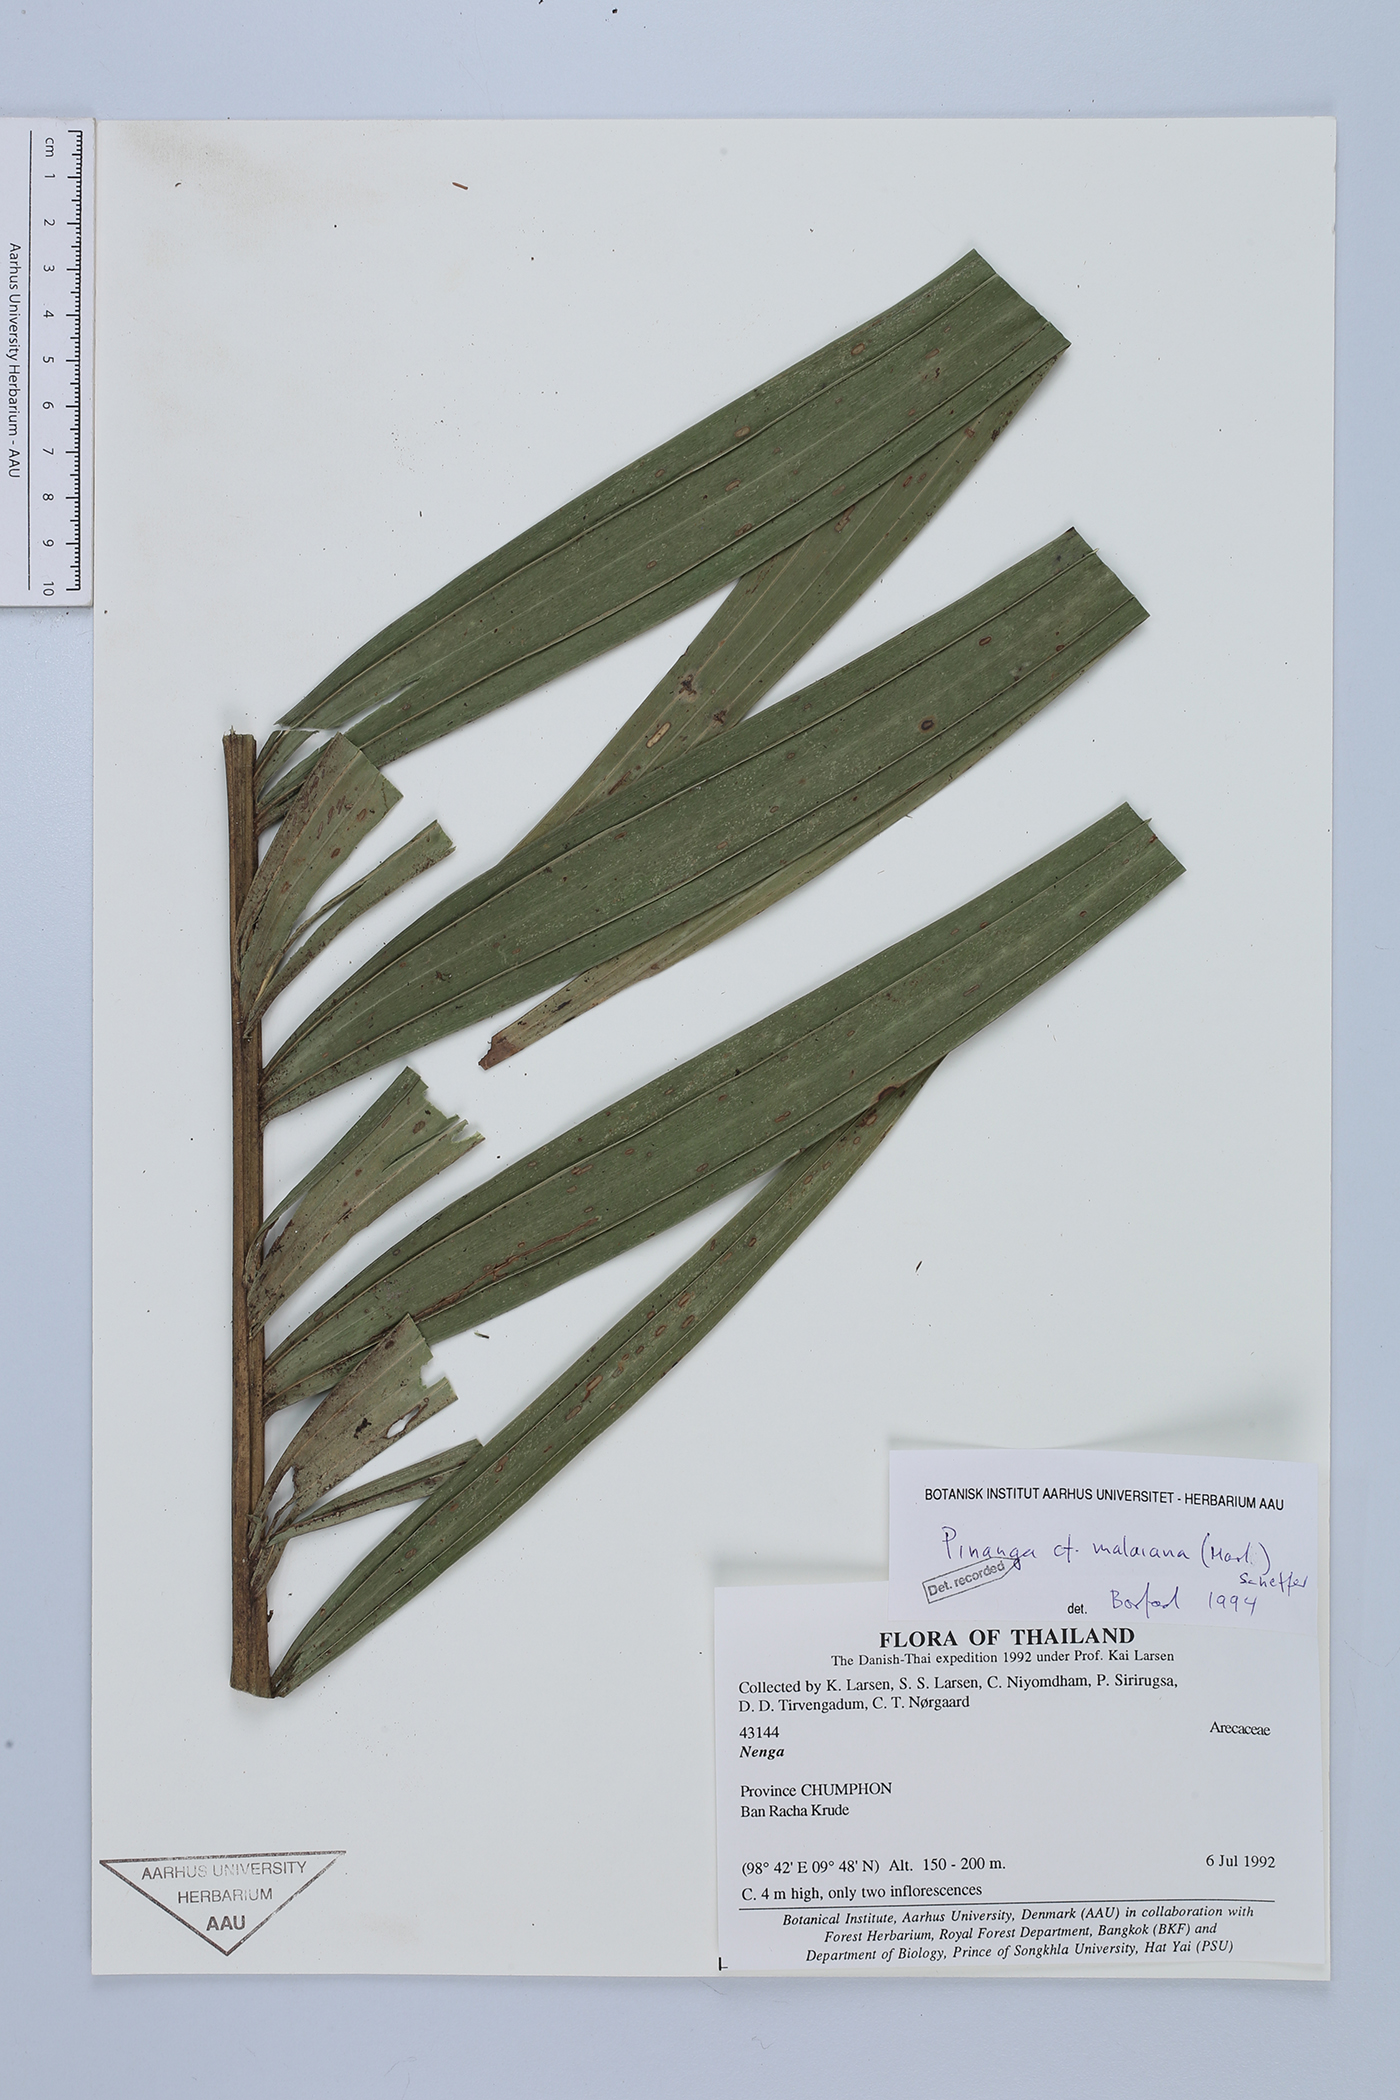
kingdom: Plantae
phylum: Tracheophyta
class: Liliopsida
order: Arecales
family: Arecaceae
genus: Pinanga
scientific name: Pinanga malaiana
